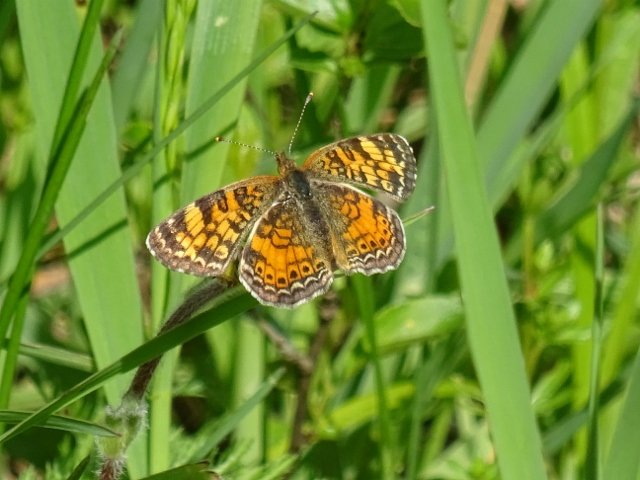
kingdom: Animalia
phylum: Arthropoda
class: Insecta
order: Lepidoptera
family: Nymphalidae
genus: Phyciodes
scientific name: Phyciodes tharos
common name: Northern Crescent
